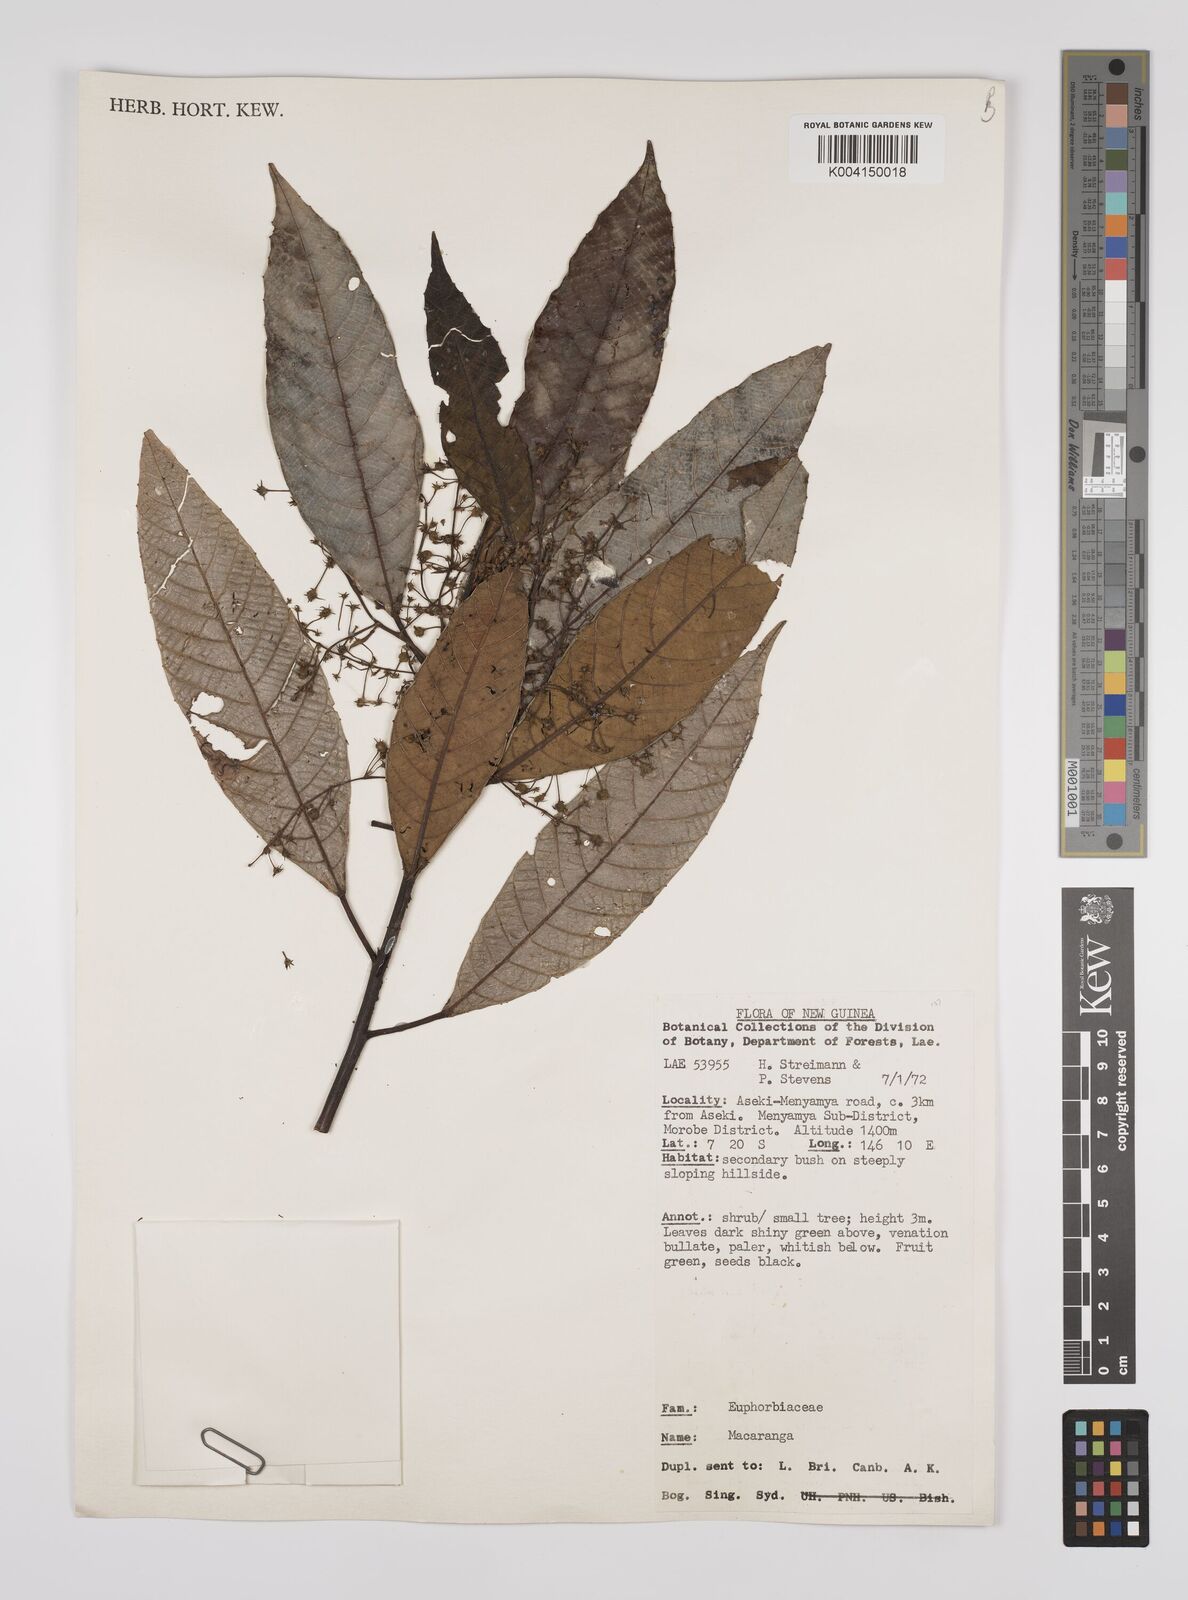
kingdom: Plantae
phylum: Tracheophyta
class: Magnoliopsida
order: Malpighiales
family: Euphorbiaceae
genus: Macaranga
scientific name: Macaranga pleioneura
